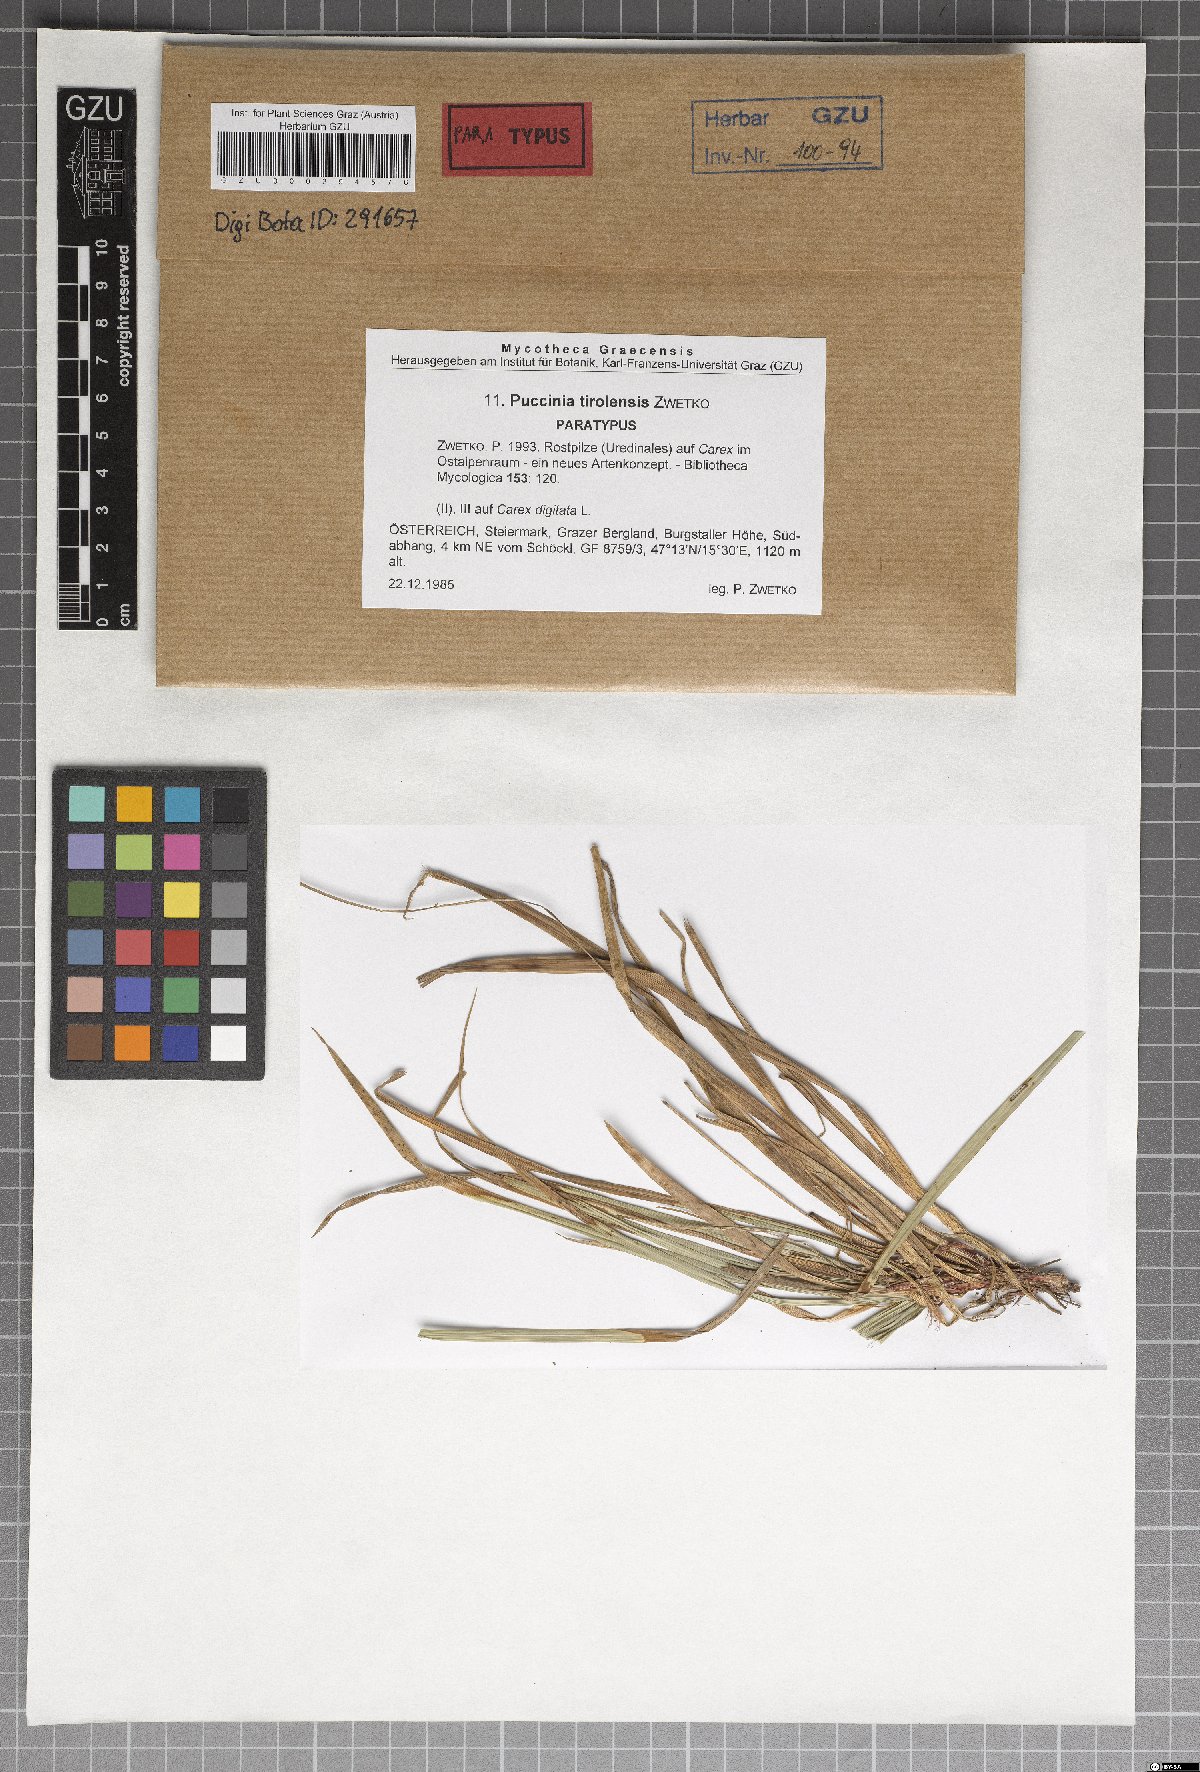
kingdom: Fungi
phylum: Basidiomycota
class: Pucciniomycetes
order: Pucciniales
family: Pucciniaceae
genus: Puccinia
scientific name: Puccinia tirolensis
